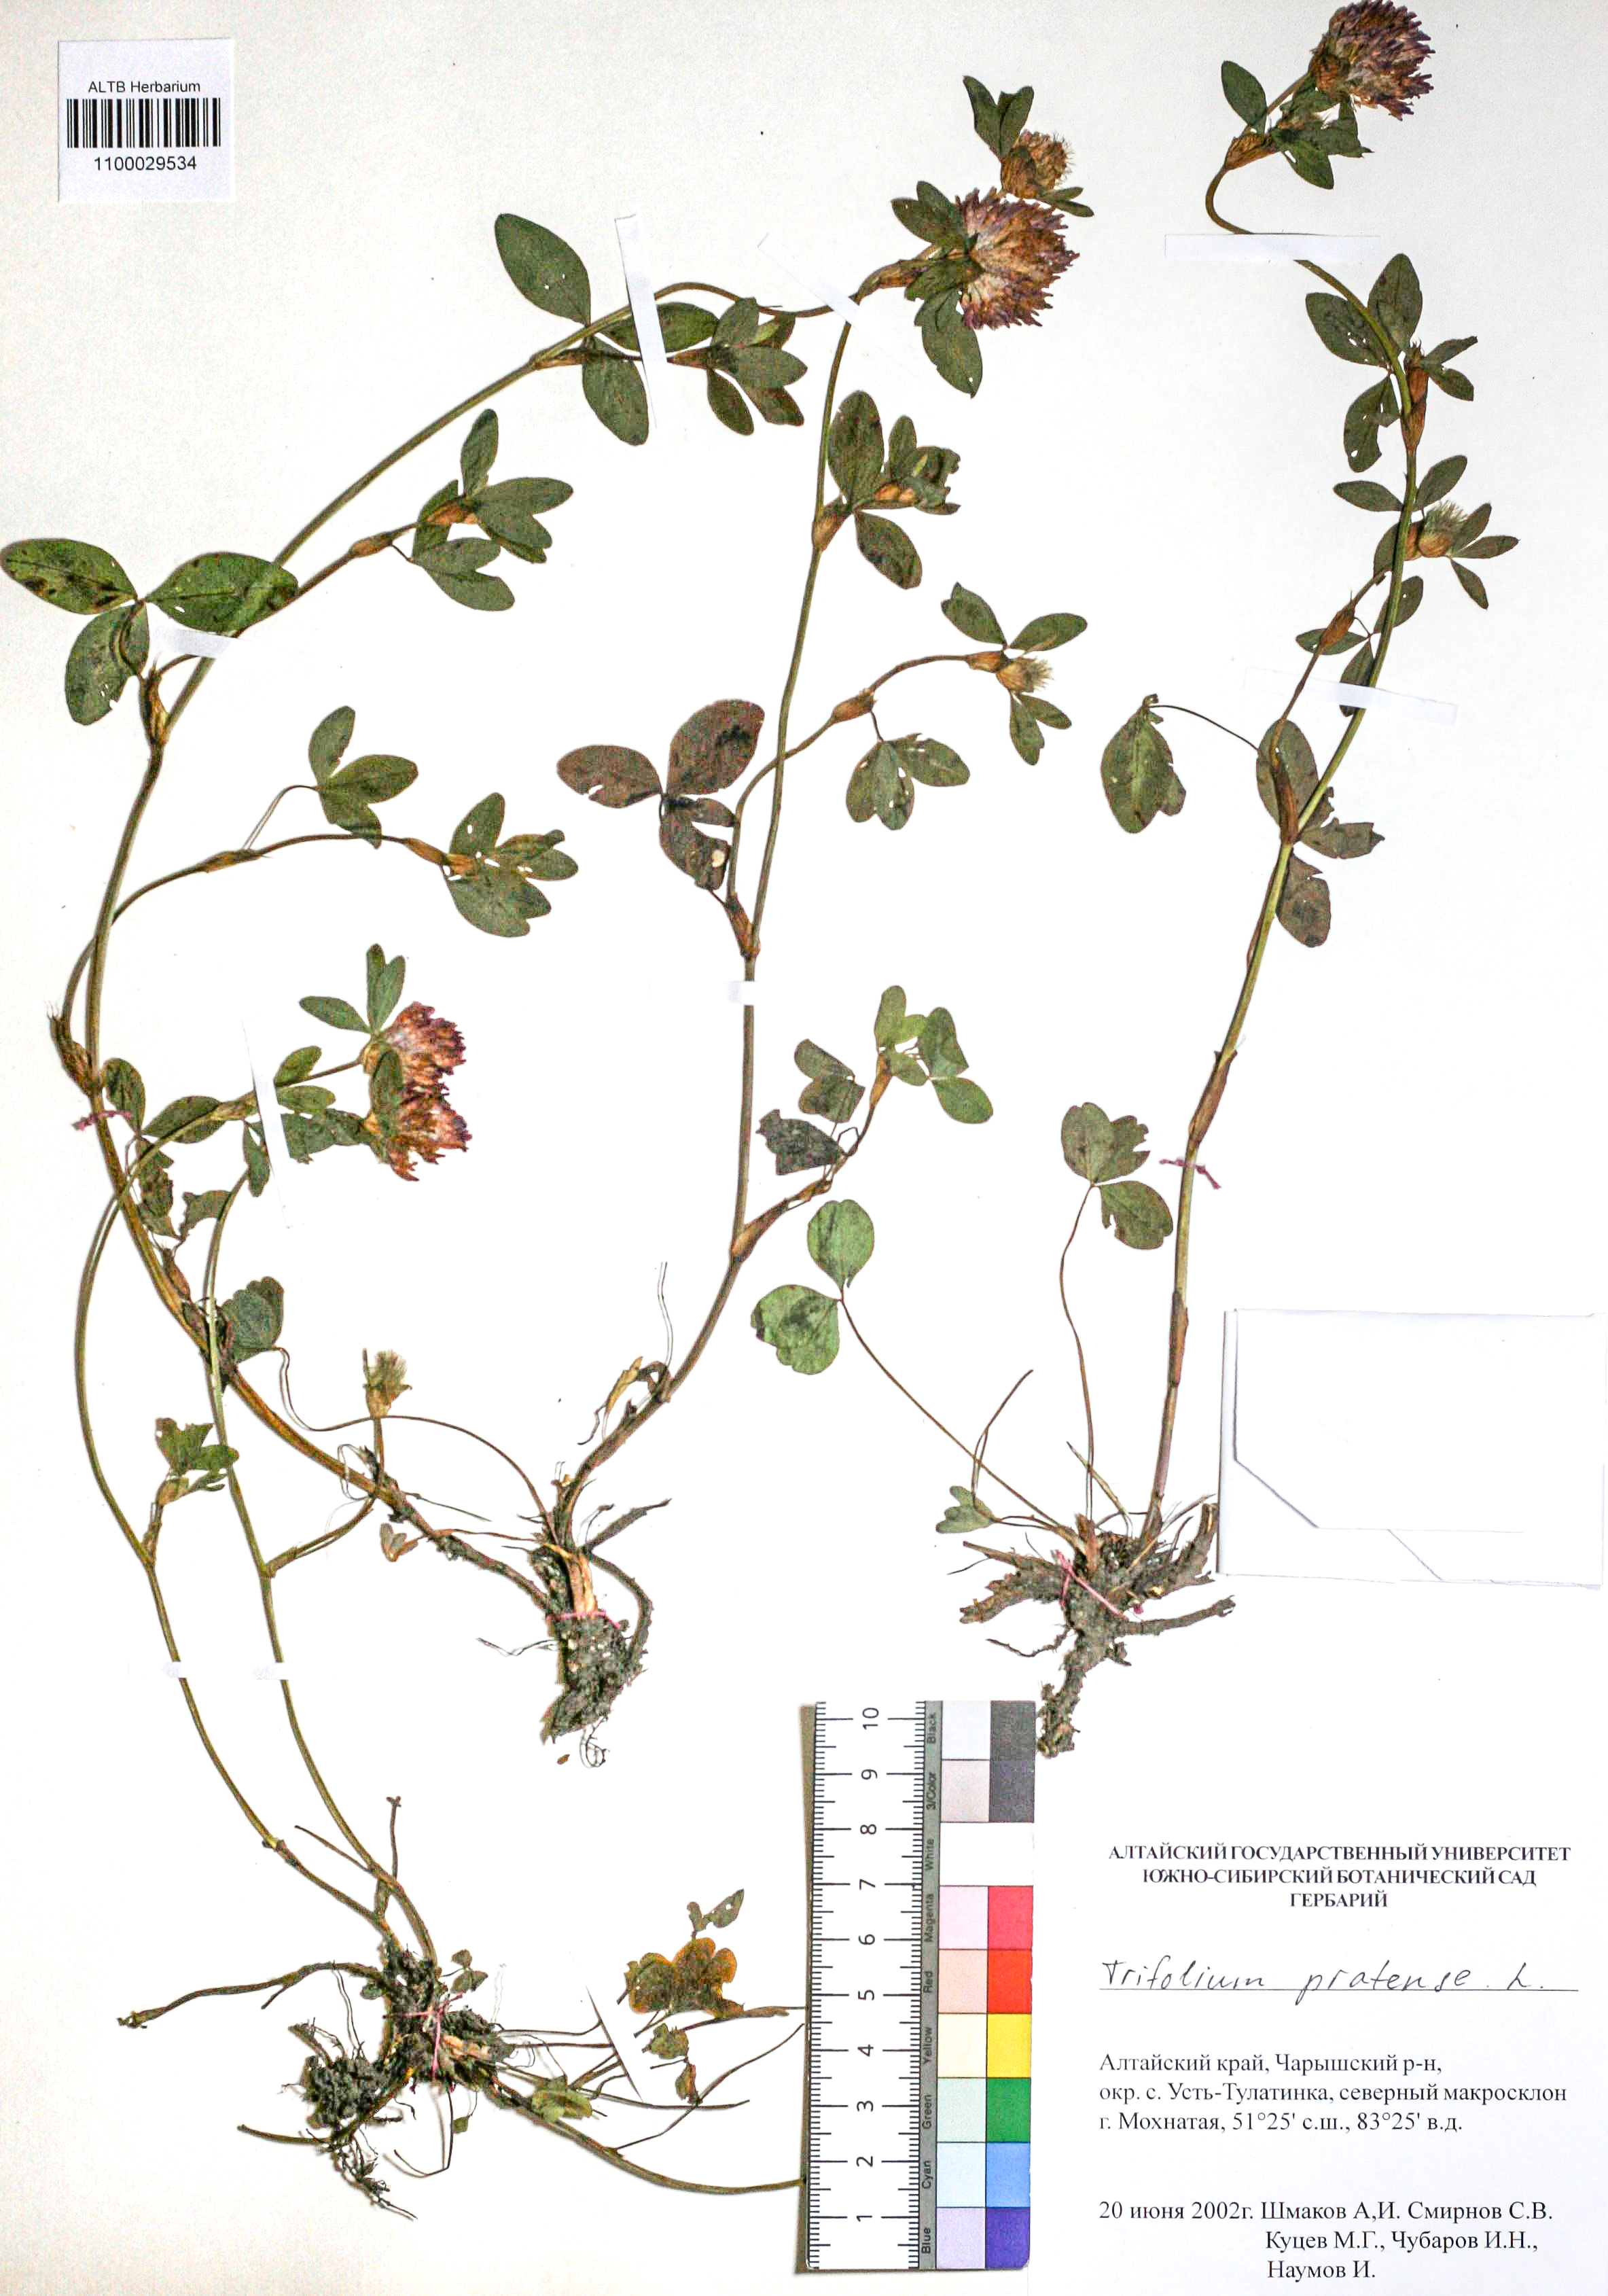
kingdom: Plantae
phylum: Tracheophyta
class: Magnoliopsida
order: Fabales
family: Fabaceae
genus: Trifolium
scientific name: Trifolium pratense
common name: Red clover
